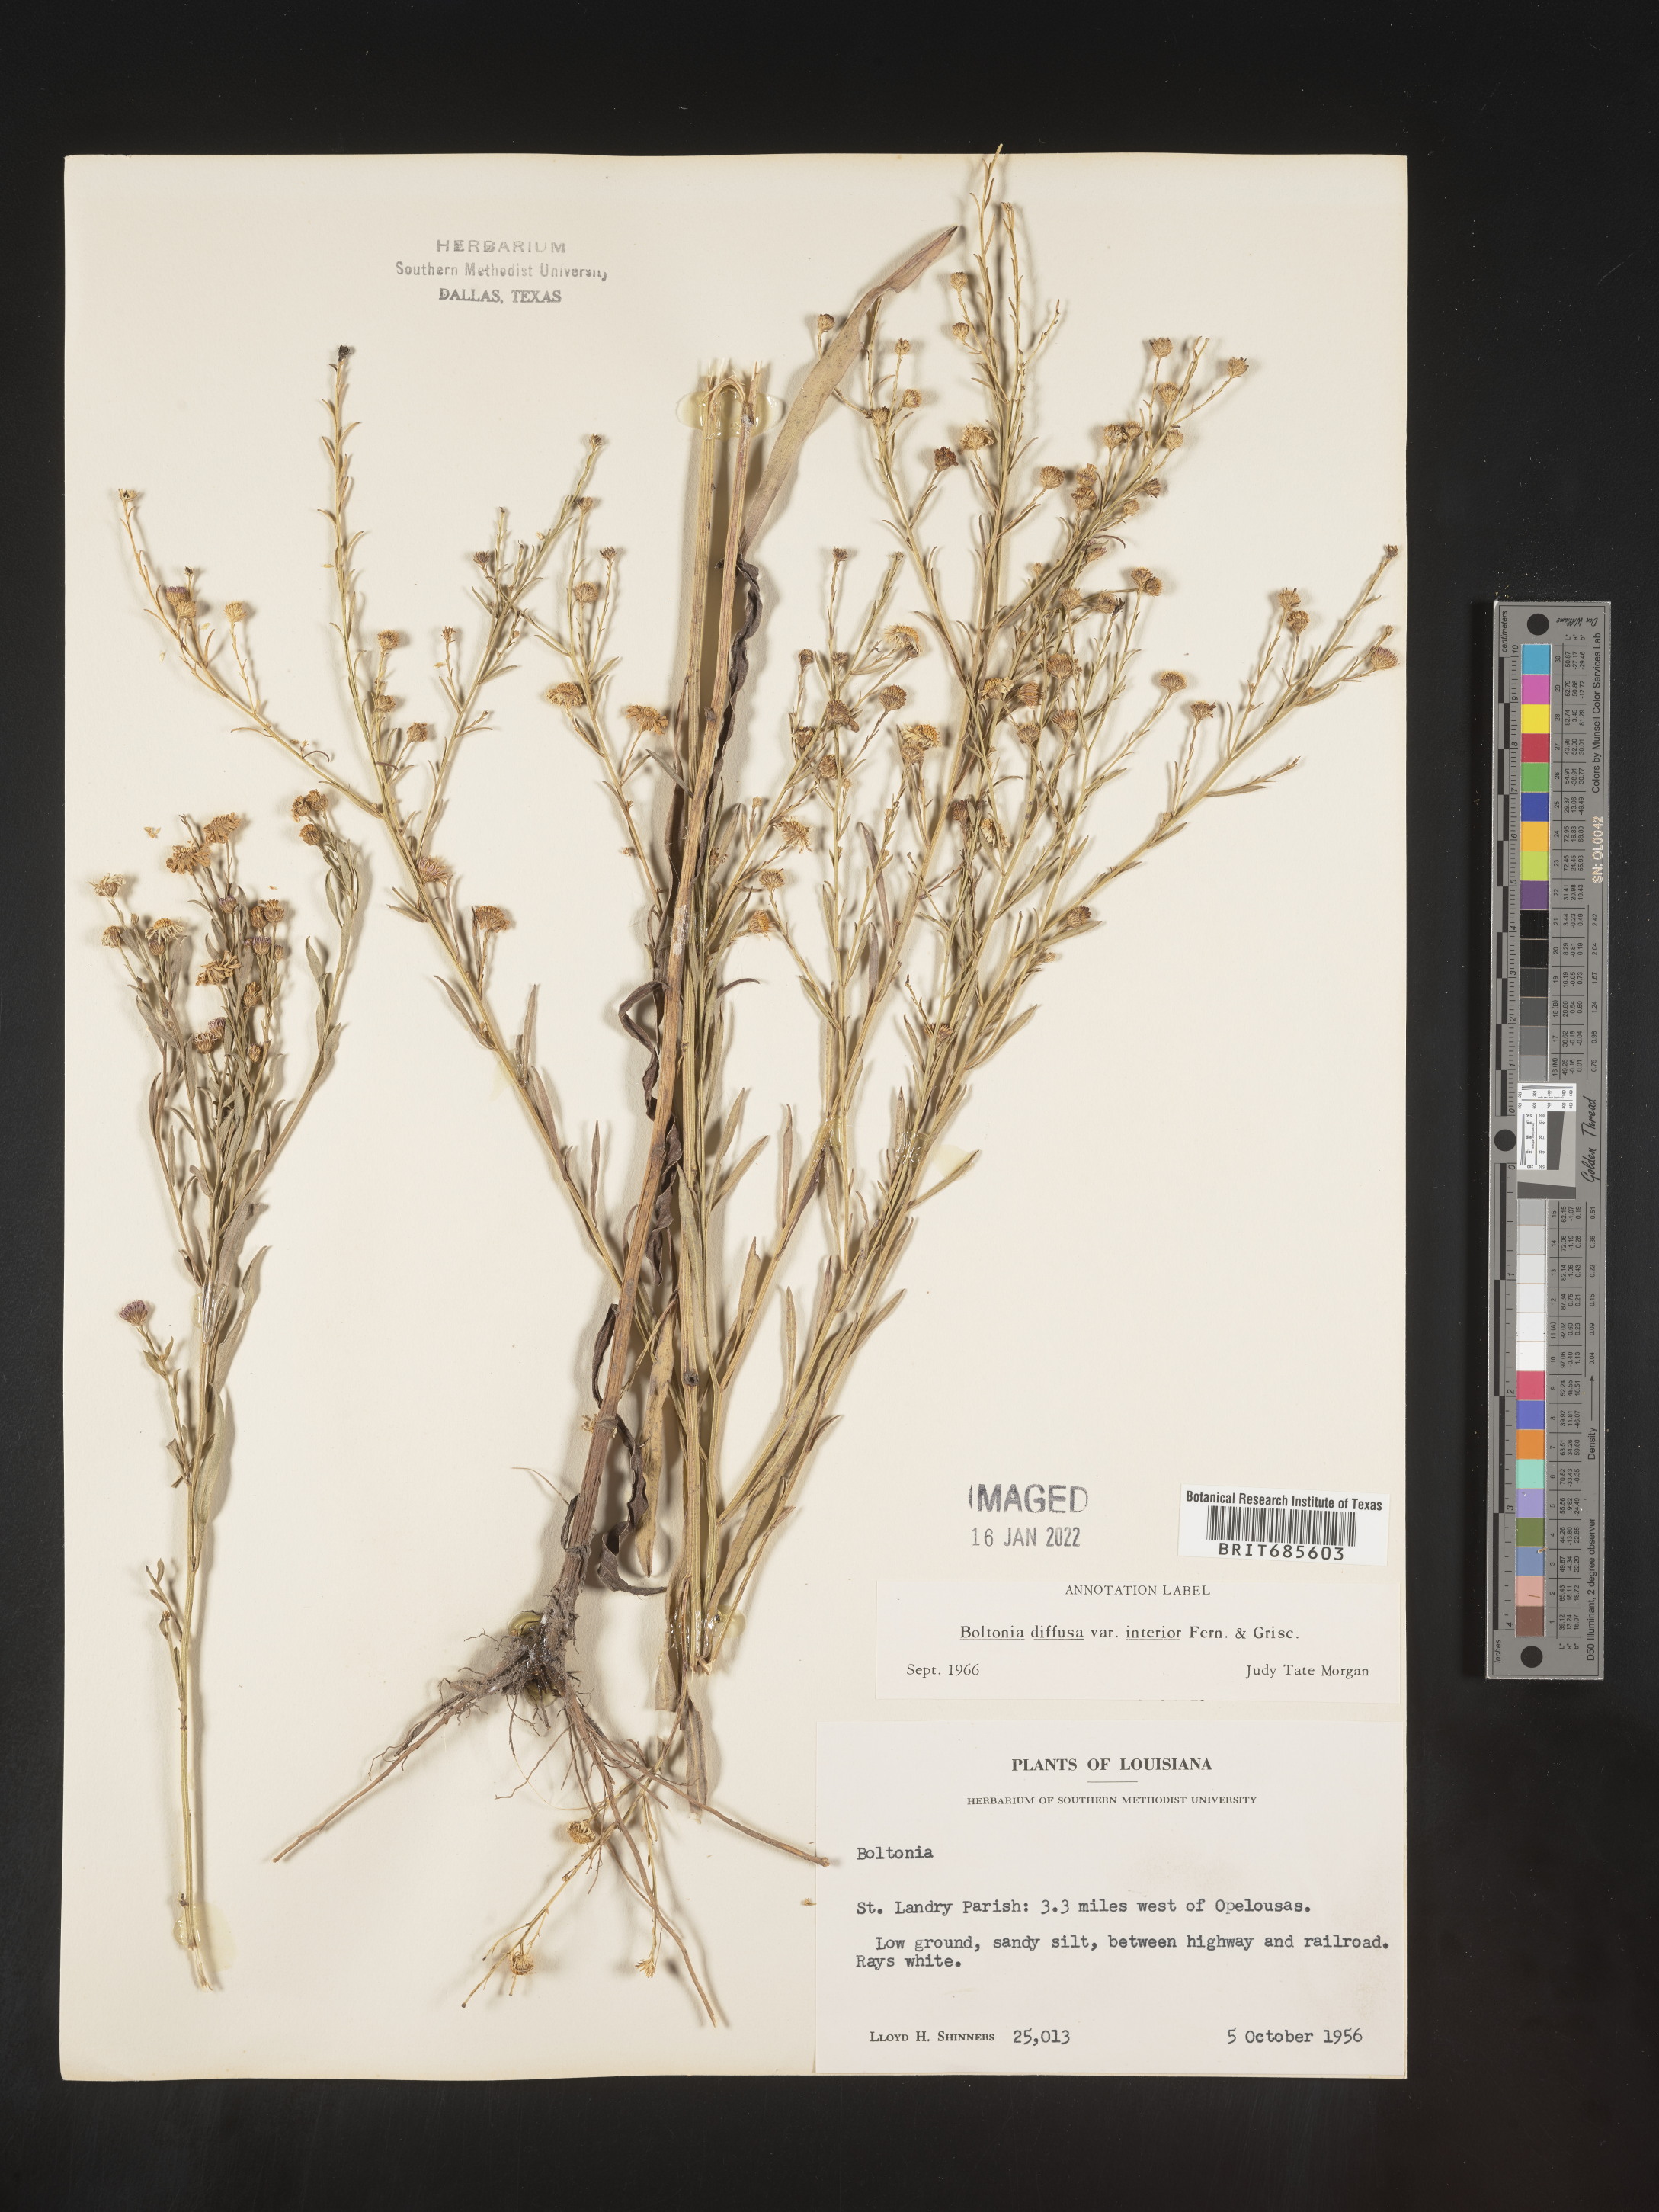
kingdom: Plantae
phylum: Tracheophyta
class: Magnoliopsida
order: Asterales
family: Asteraceae
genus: Boltonia
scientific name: Boltonia diffusa
